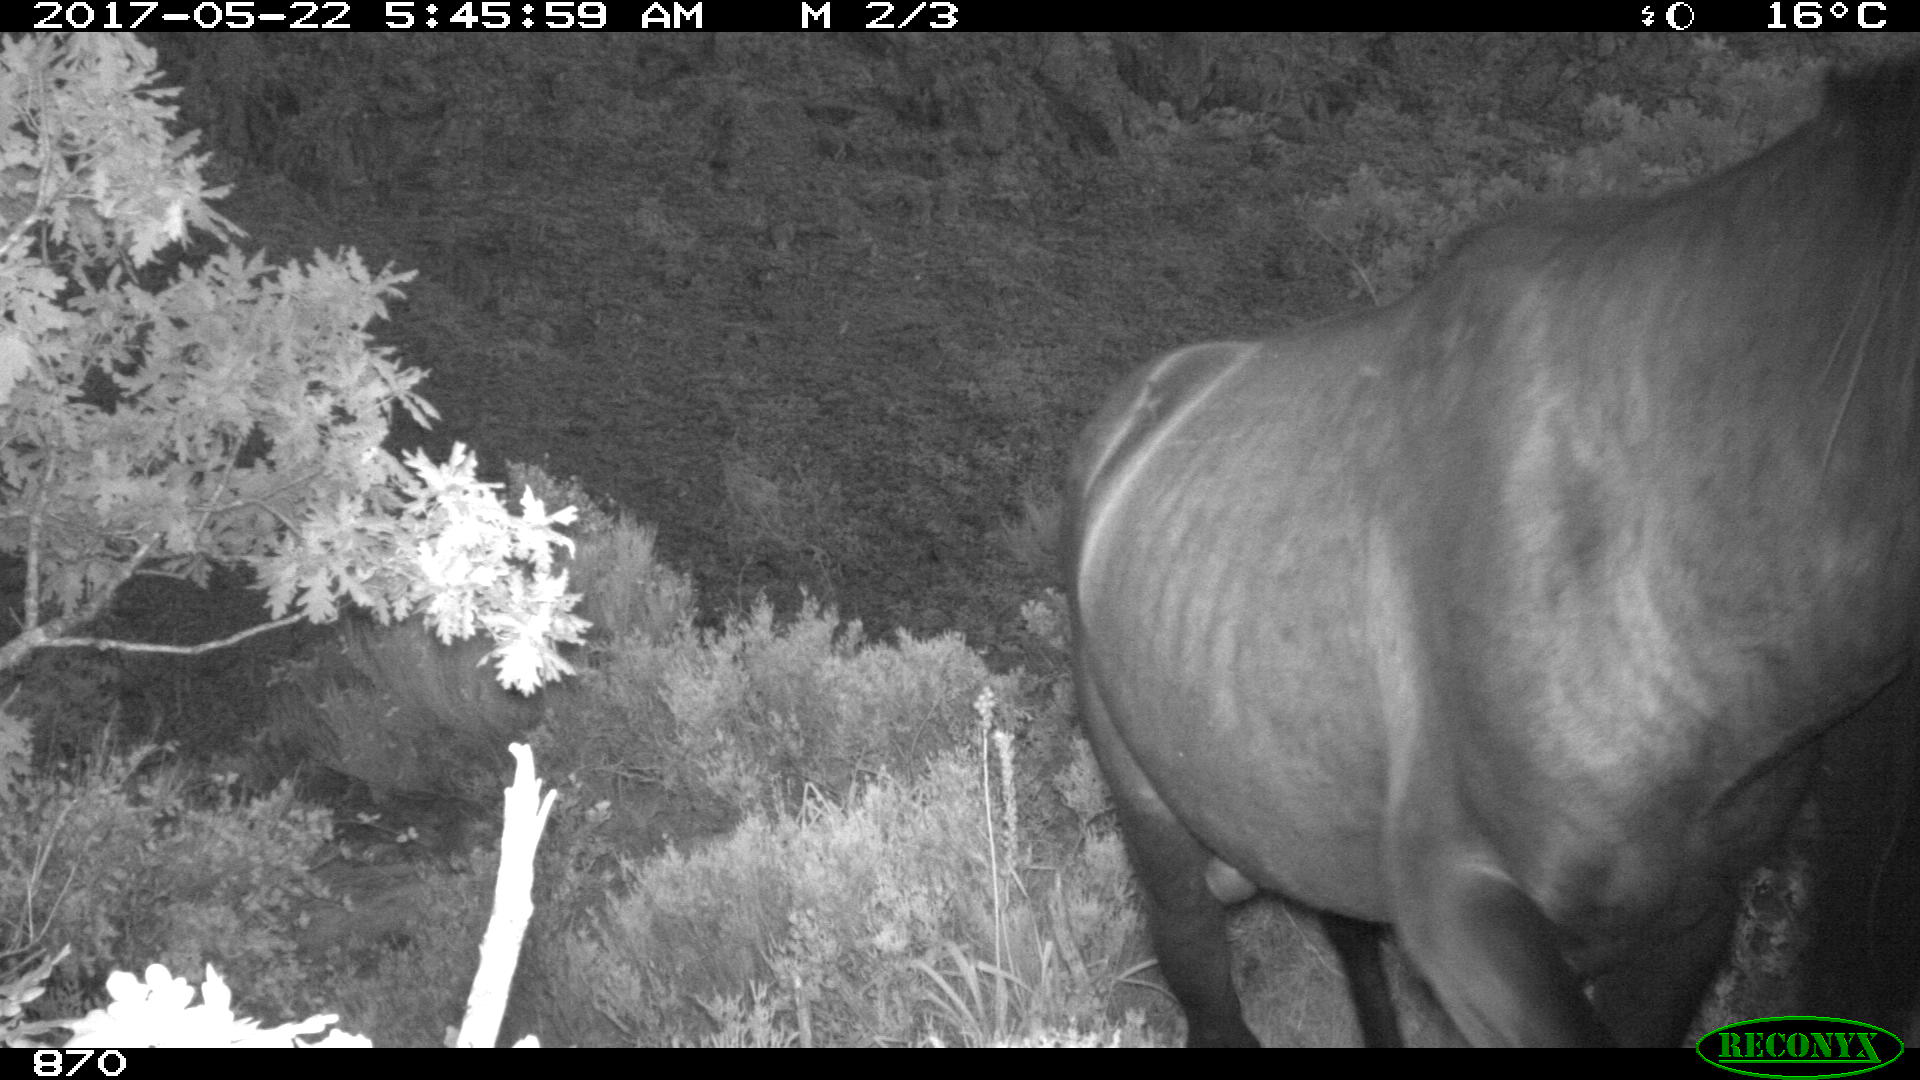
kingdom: Animalia
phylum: Chordata
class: Mammalia
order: Perissodactyla
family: Equidae
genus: Equus
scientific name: Equus caballus
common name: Horse
